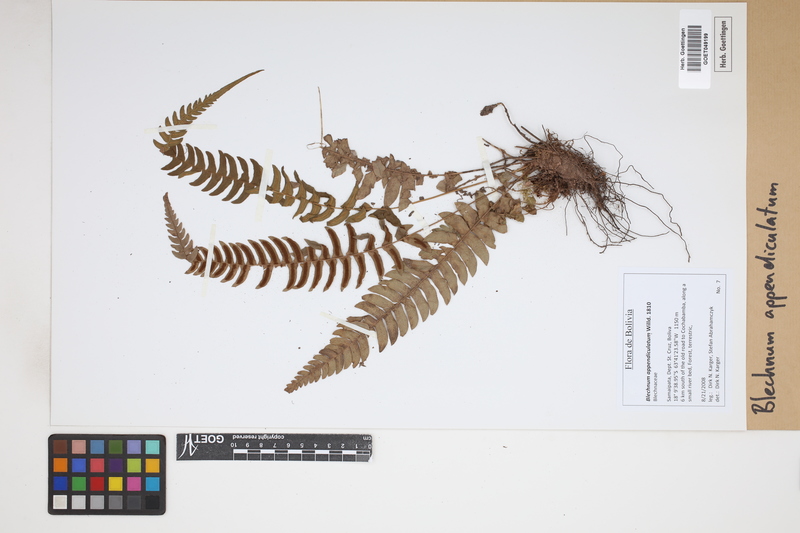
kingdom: Plantae
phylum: Tracheophyta
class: Polypodiopsida
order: Polypodiales
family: Blechnaceae
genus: Blechnum
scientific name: Blechnum appendiculatum
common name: Palm fern
